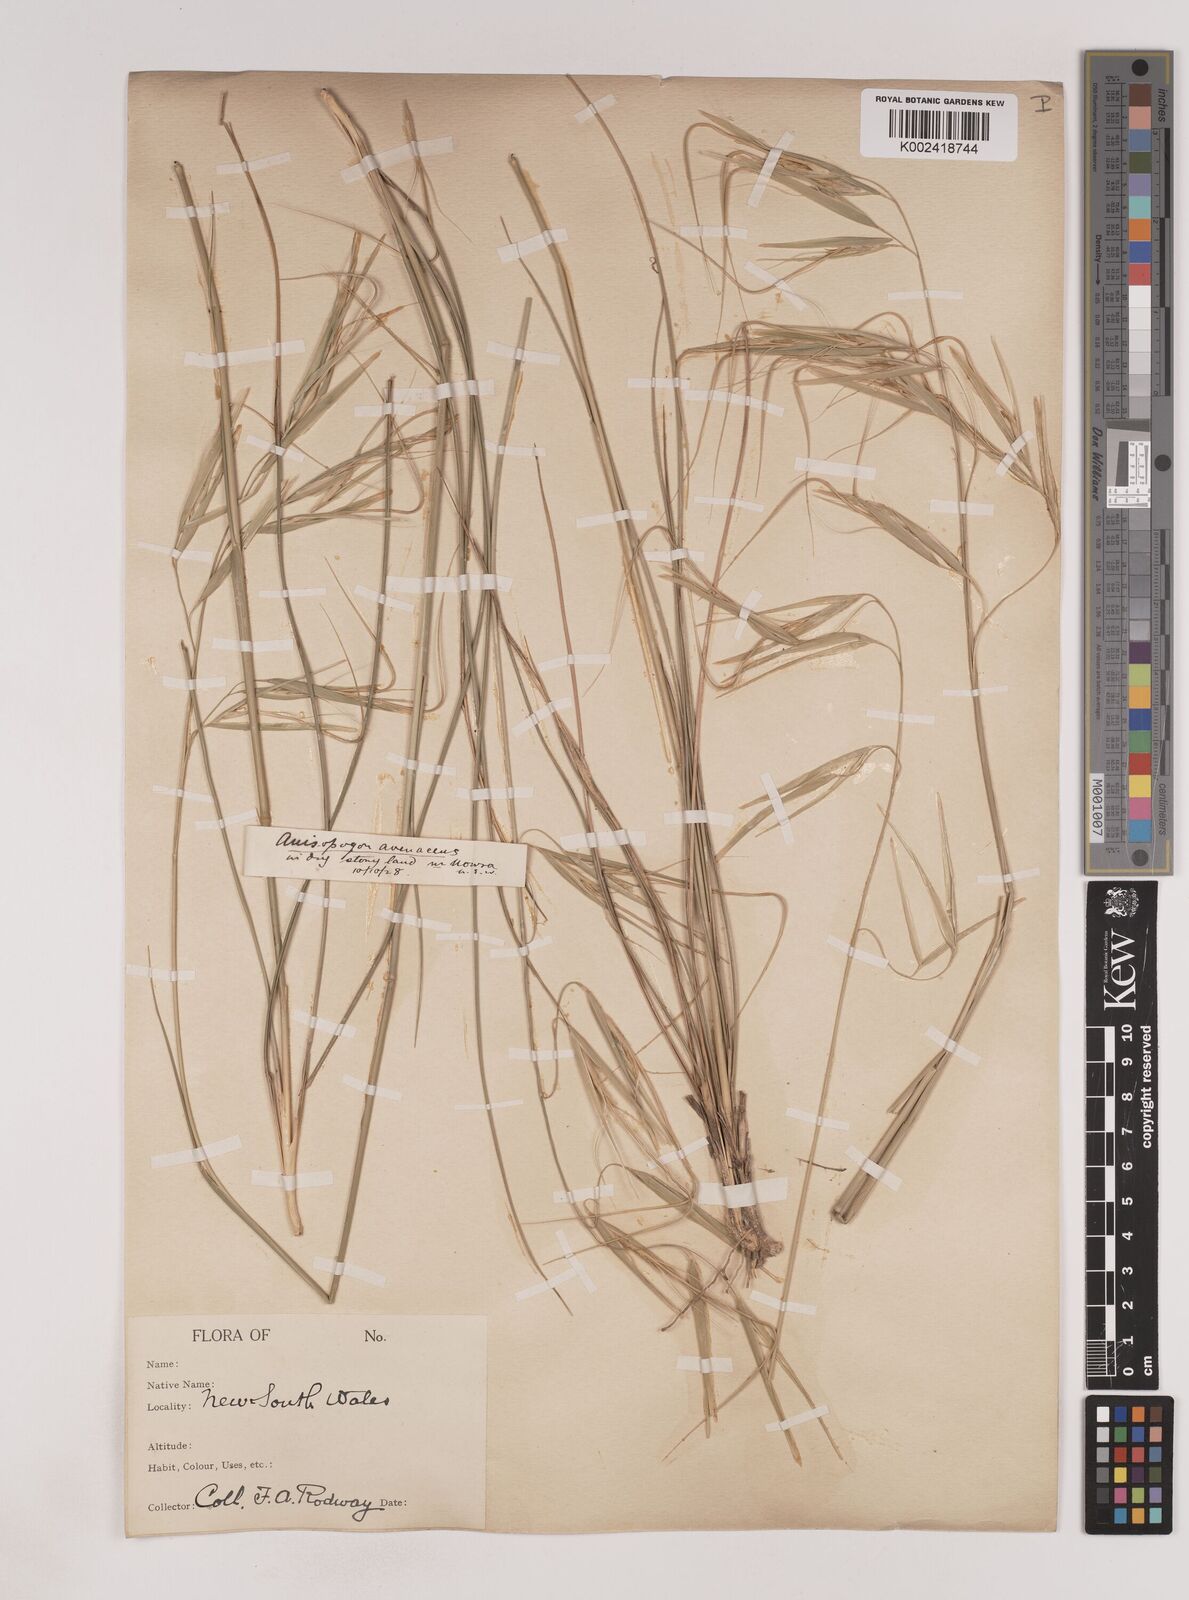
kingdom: Plantae
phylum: Tracheophyta
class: Liliopsida
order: Poales
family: Poaceae
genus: Anisopogon
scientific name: Anisopogon avenaceus
